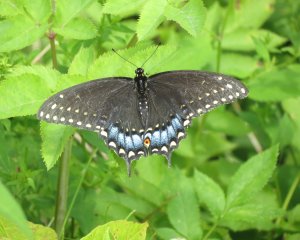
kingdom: Animalia
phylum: Arthropoda
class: Insecta
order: Lepidoptera
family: Papilionidae
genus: Papilio
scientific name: Papilio polyxenes
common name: Black Swallowtail
